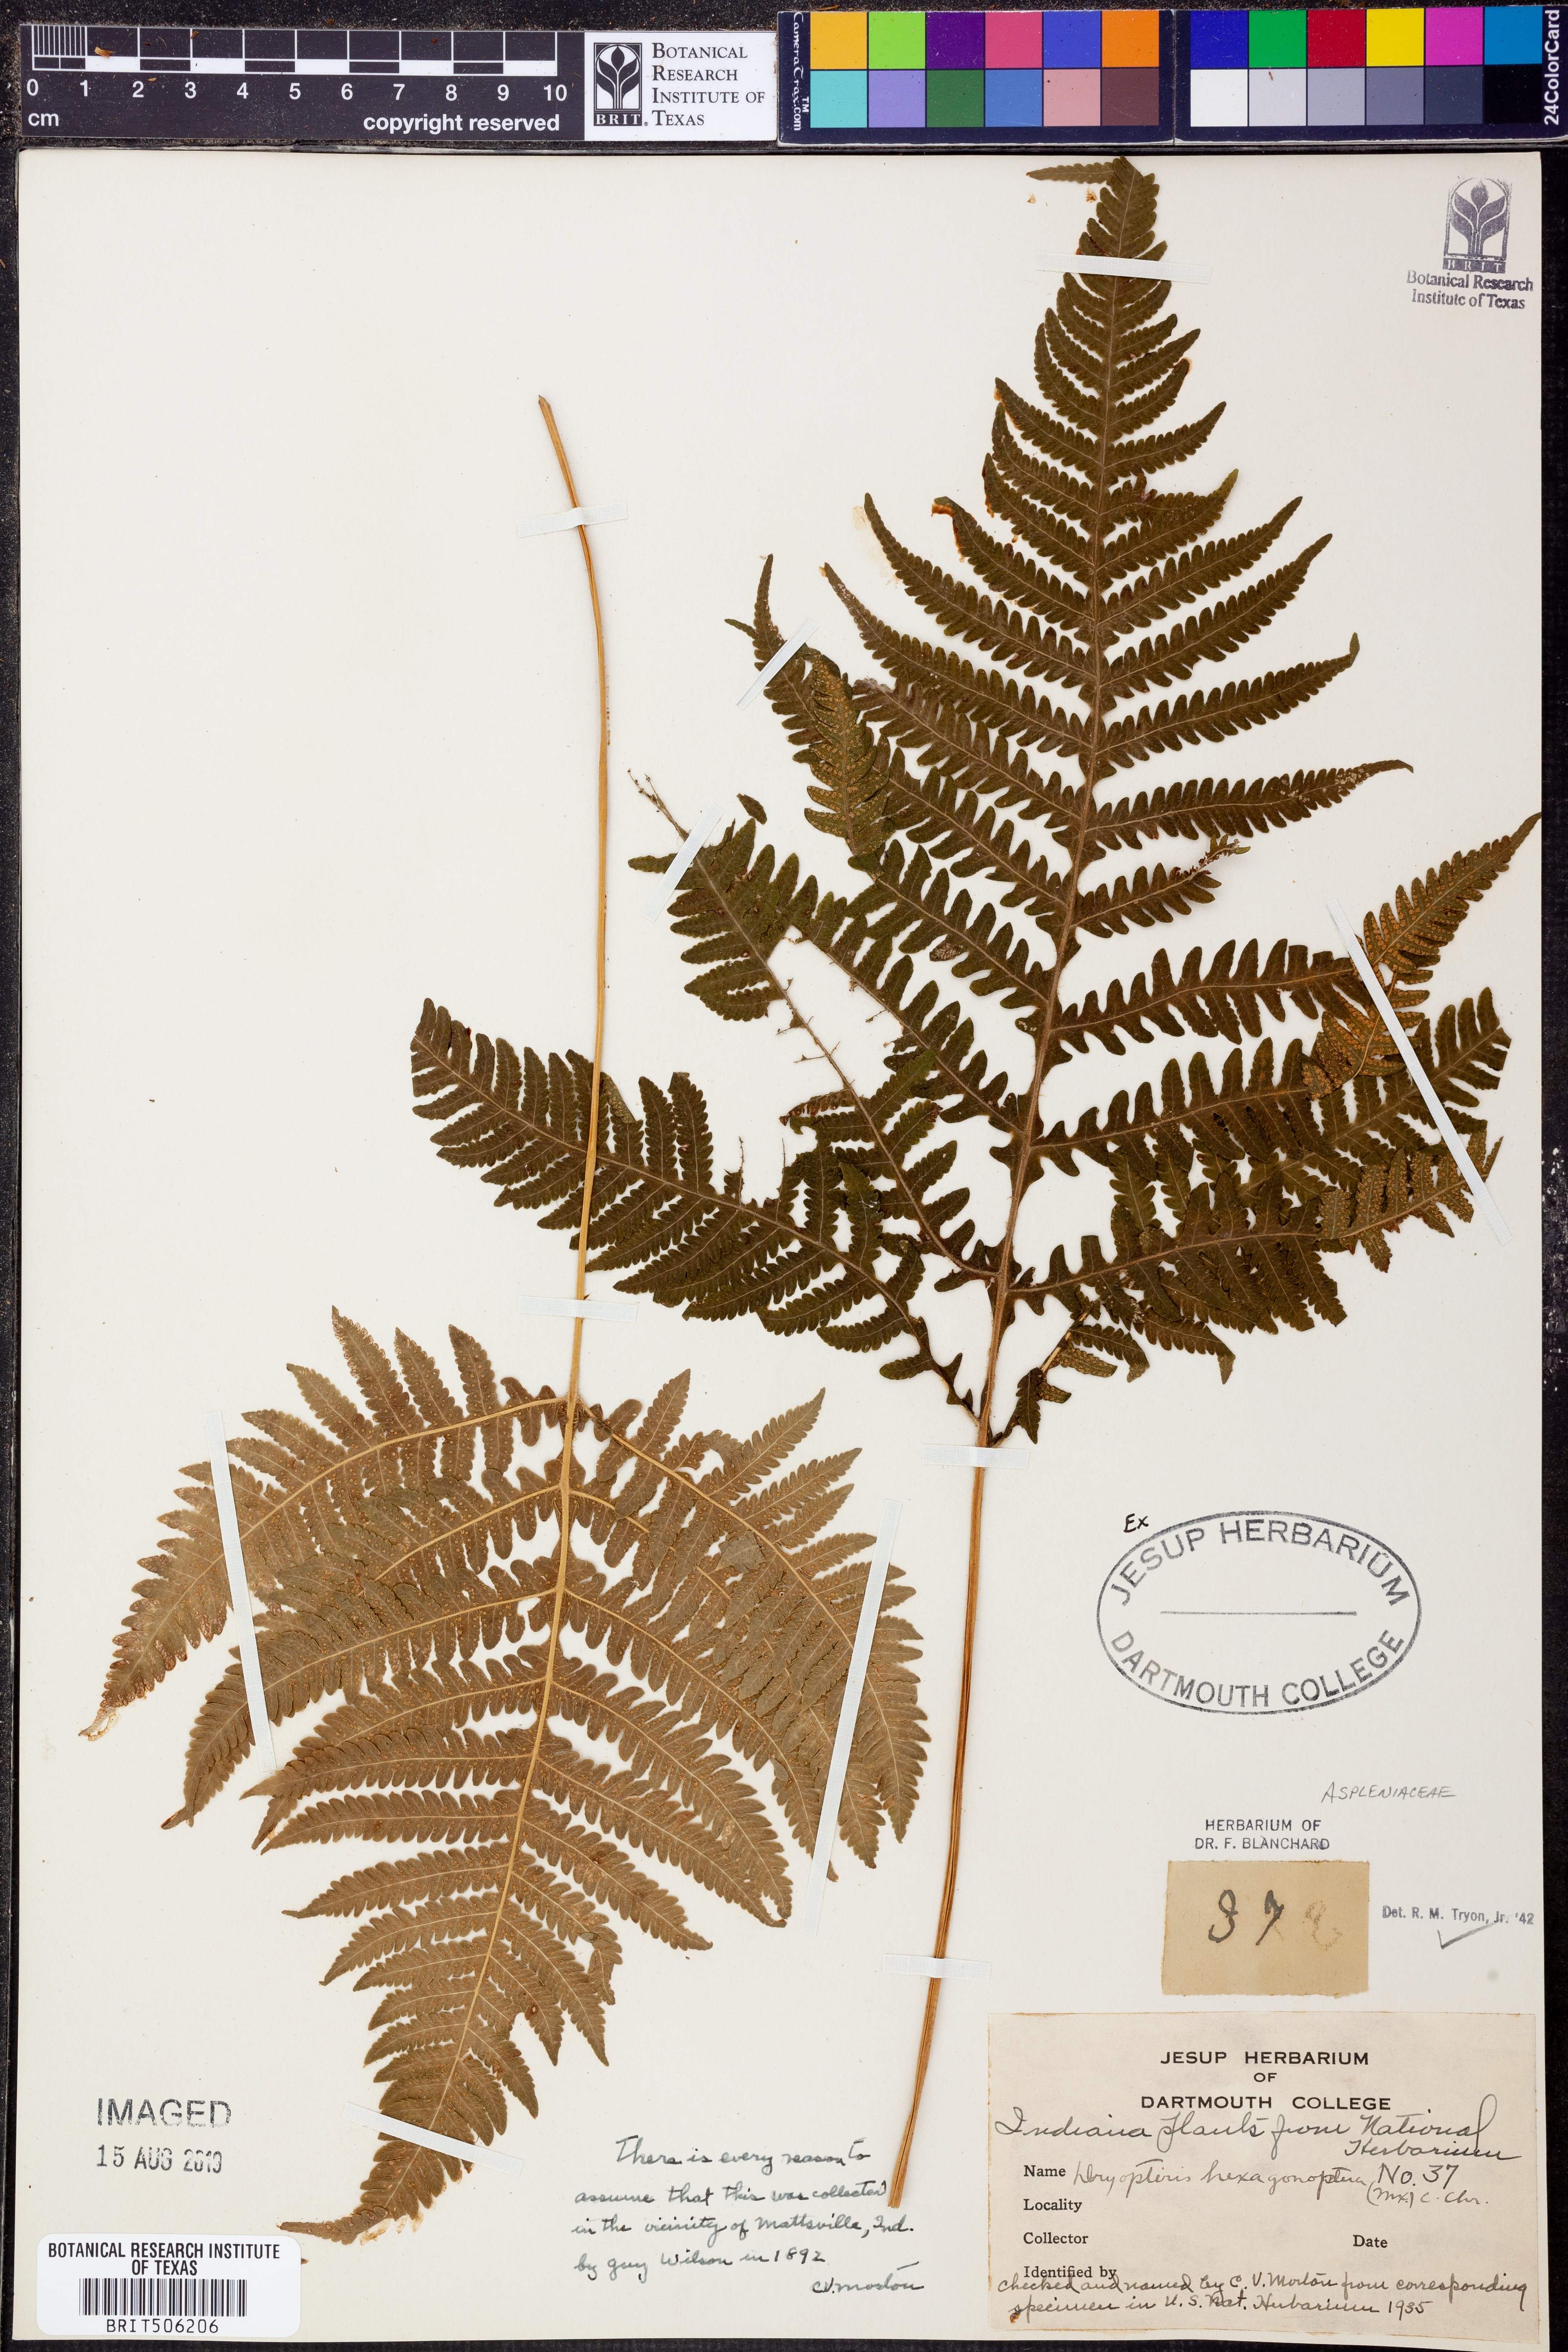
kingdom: Plantae
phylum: Tracheophyta
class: Polypodiopsida
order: Polypodiales
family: Dryopteridaceae
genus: Dryopteris
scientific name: Dryopteris hexagonaptera
